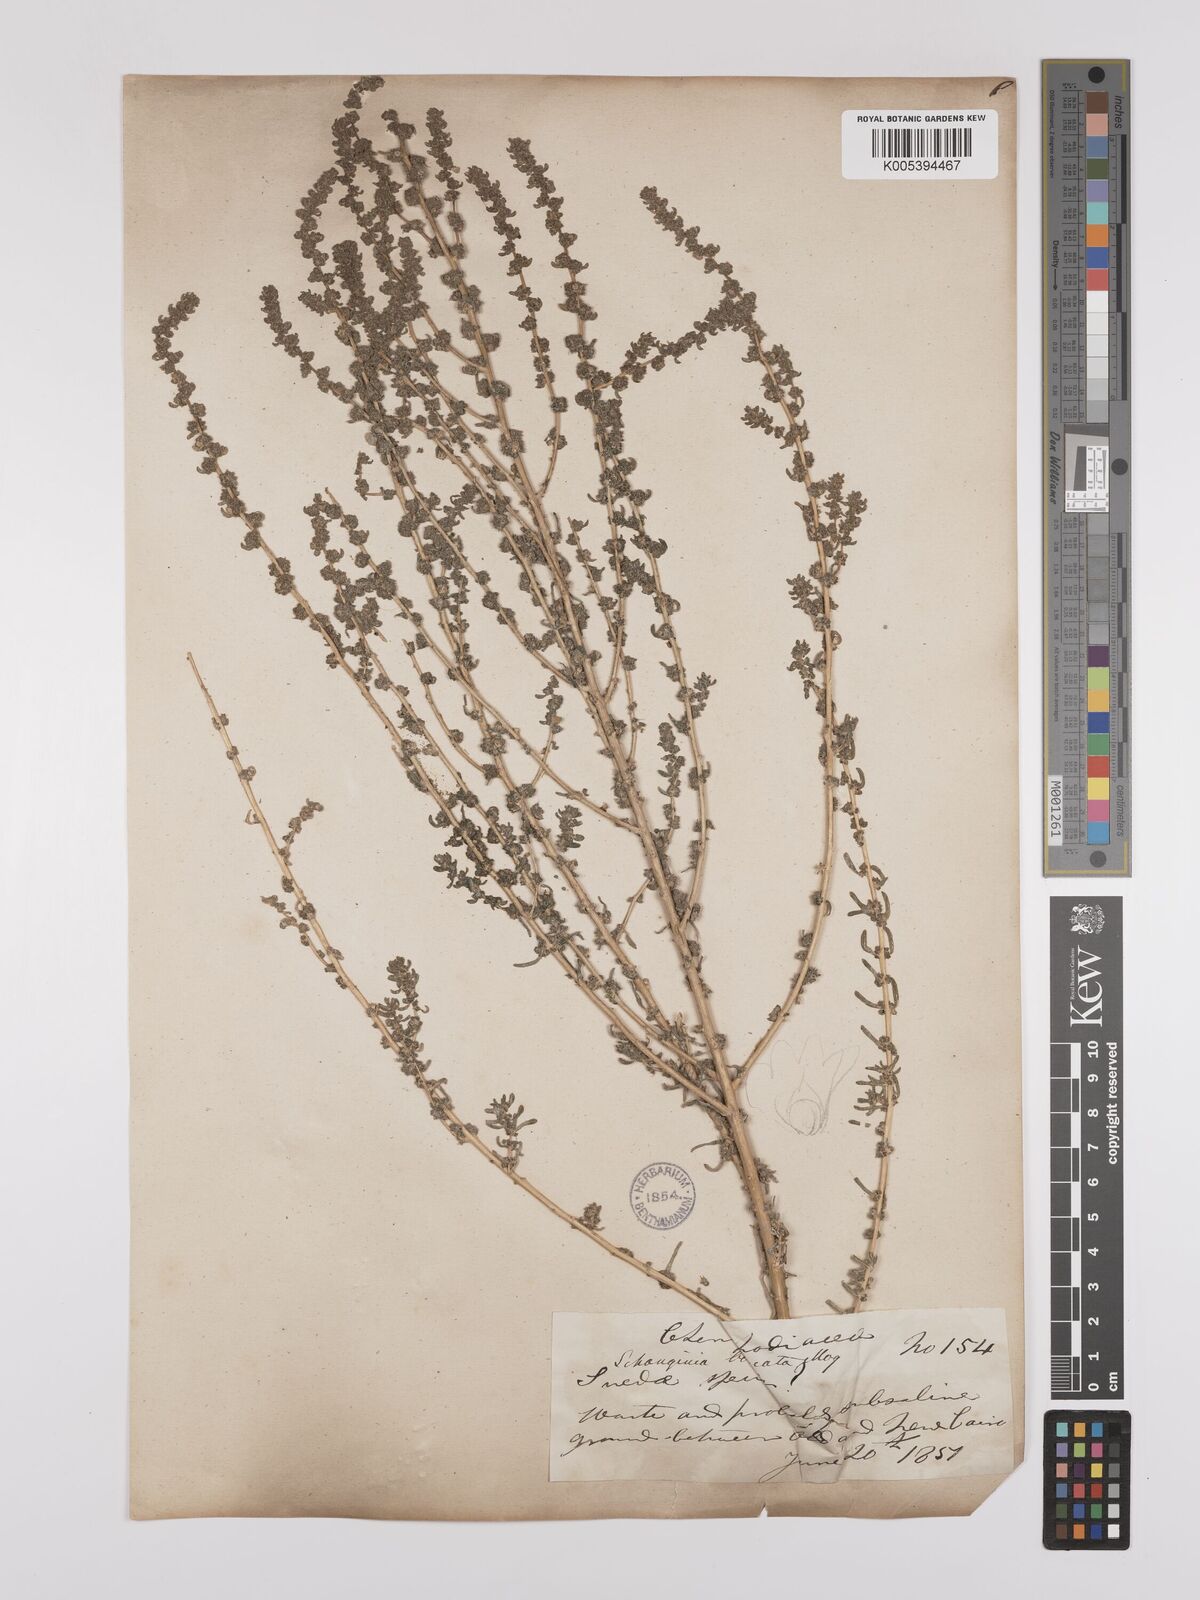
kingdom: Plantae
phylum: Tracheophyta
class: Magnoliopsida
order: Caryophyllales
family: Amaranthaceae
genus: Suaeda
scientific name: Suaeda aegyptiaca
